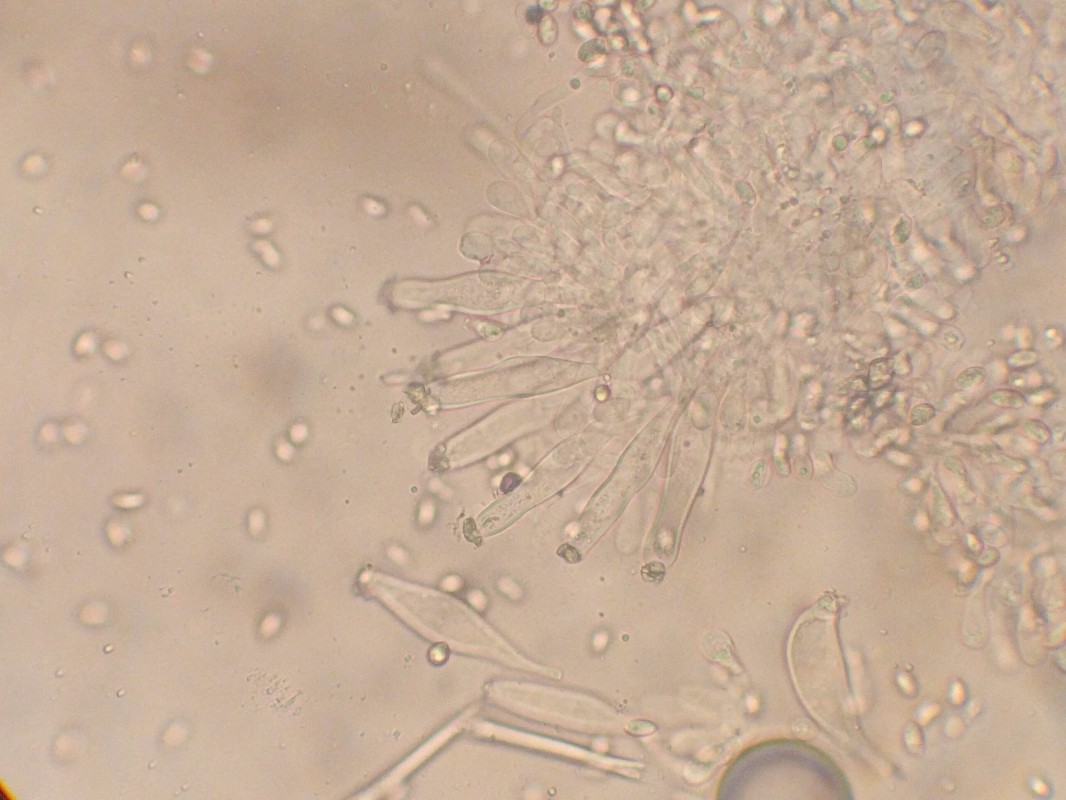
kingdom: Fungi
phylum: Basidiomycota
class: Agaricomycetes
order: Agaricales
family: Inocybaceae
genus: Inocybe
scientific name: Inocybe
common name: trævlhat
